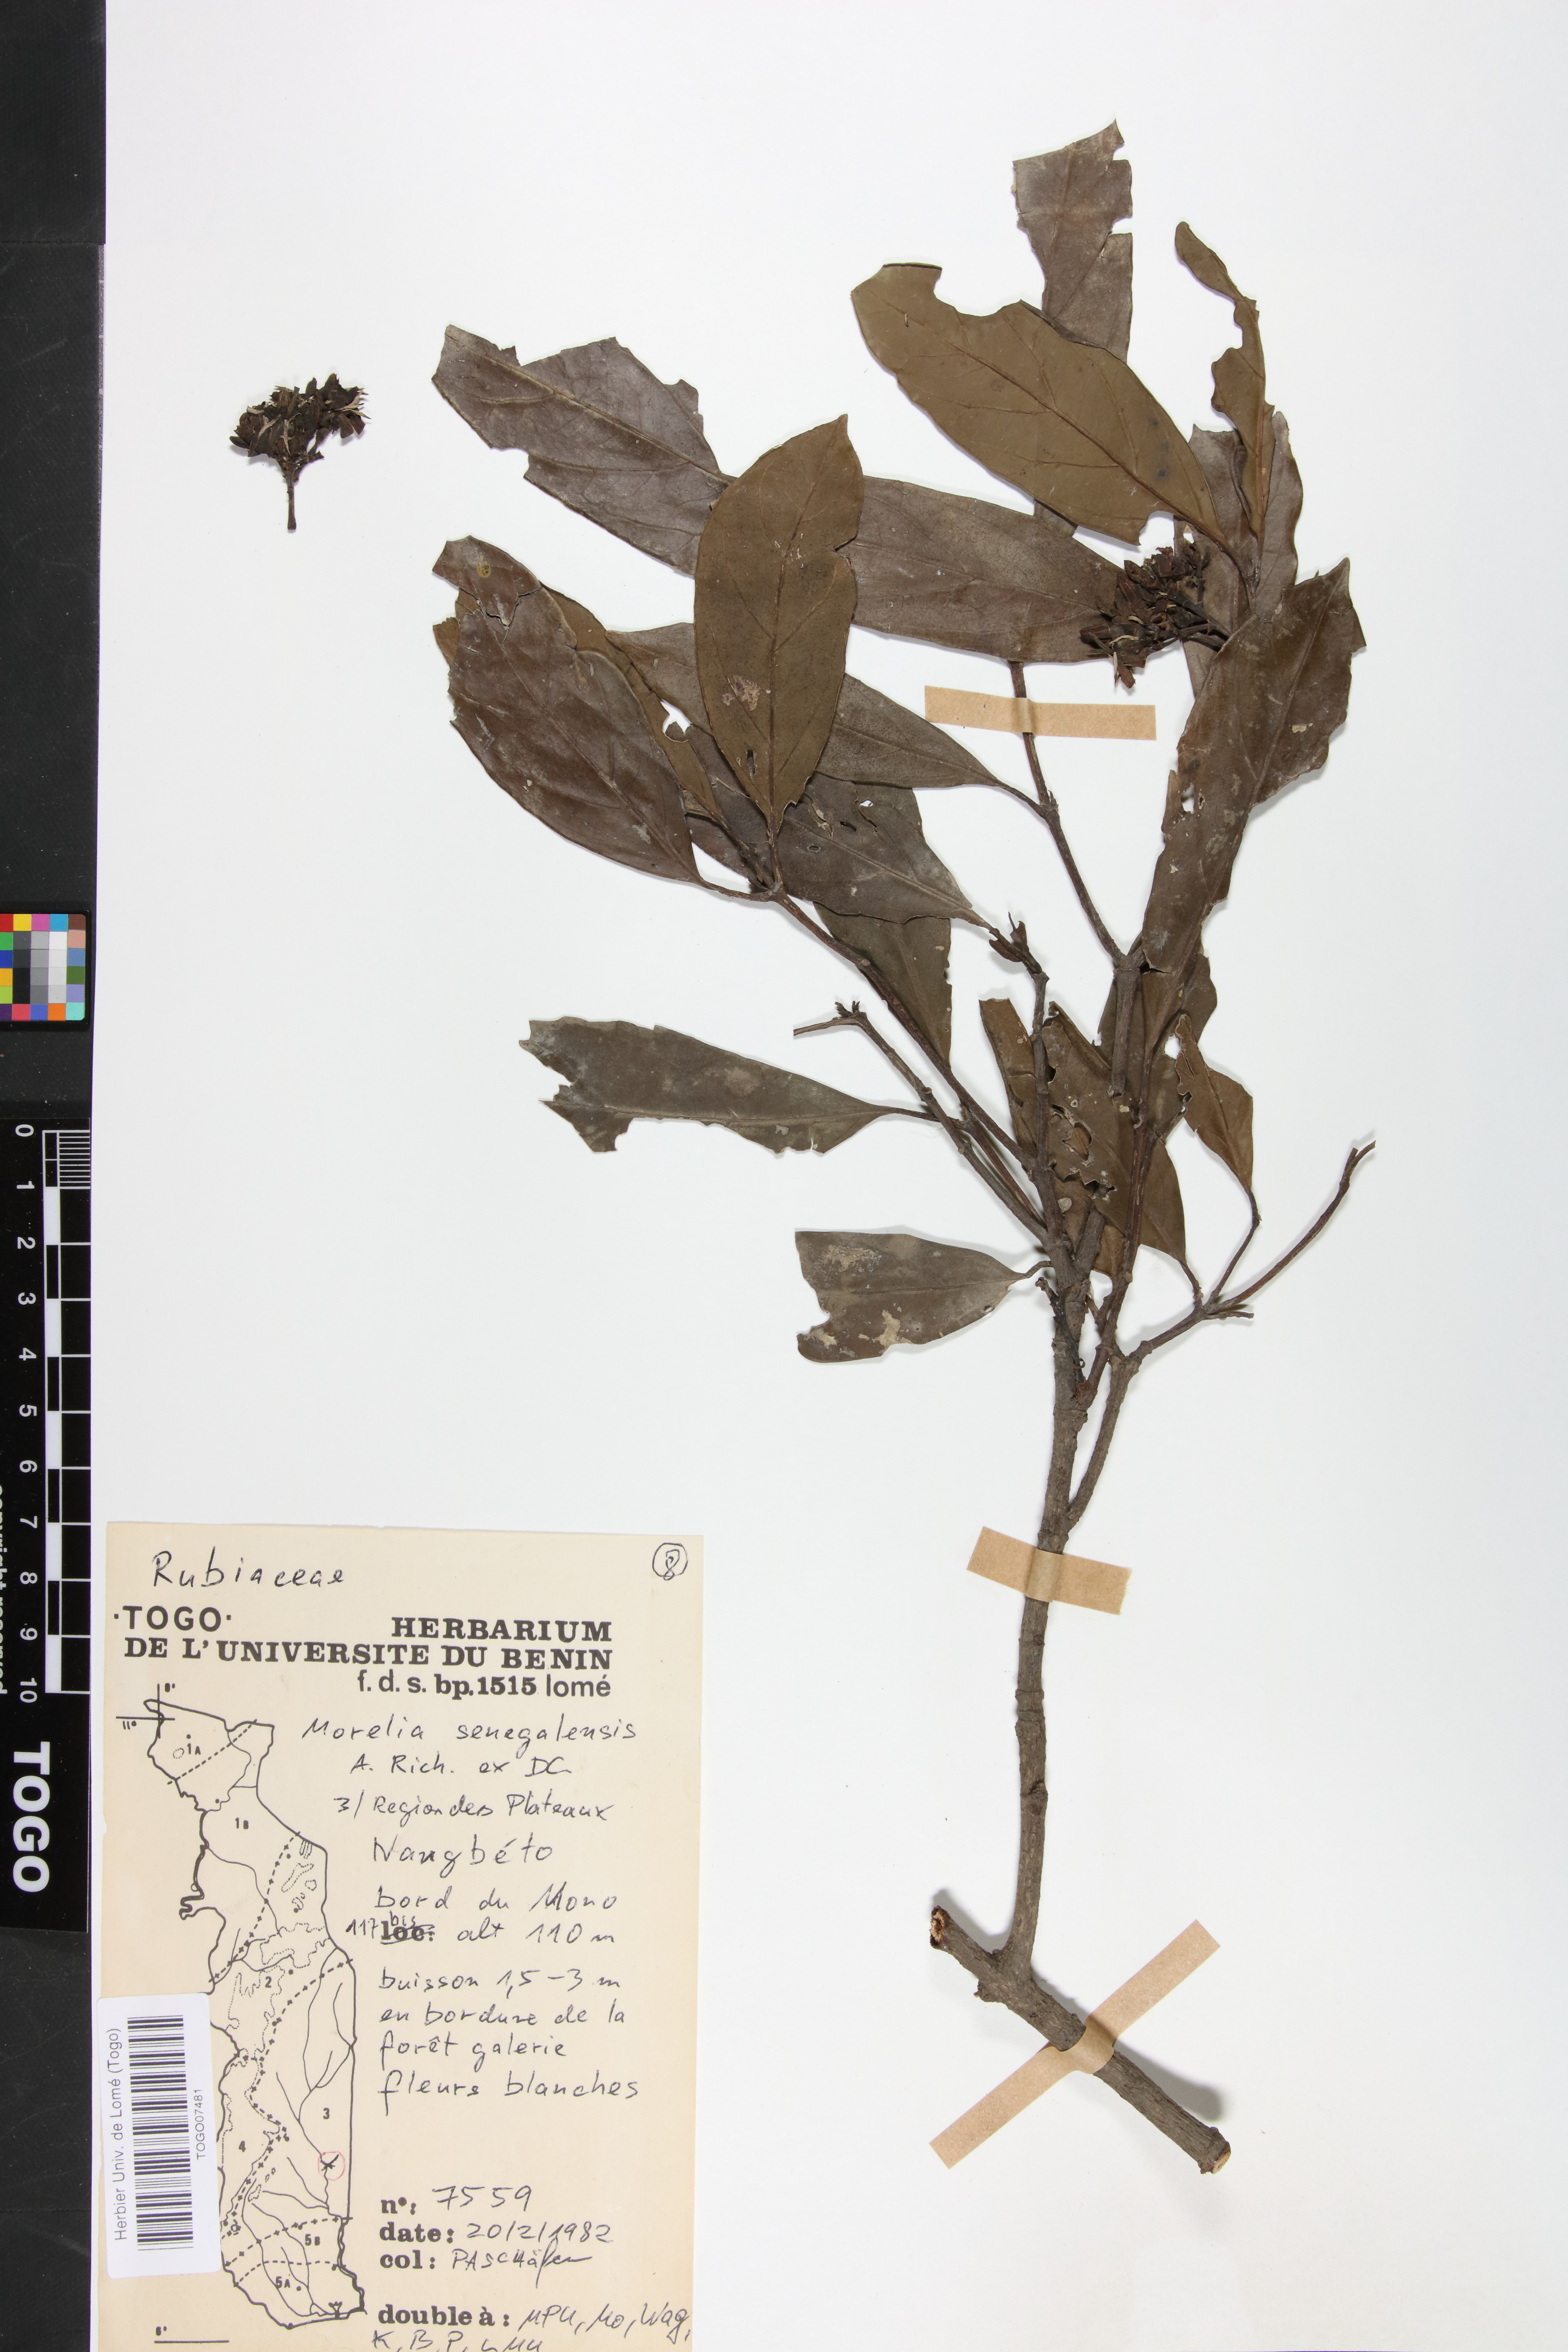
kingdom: Plantae
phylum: Tracheophyta
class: Magnoliopsida
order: Gentianales
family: Rubiaceae
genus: Morelia
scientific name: Morelia senegalensis
